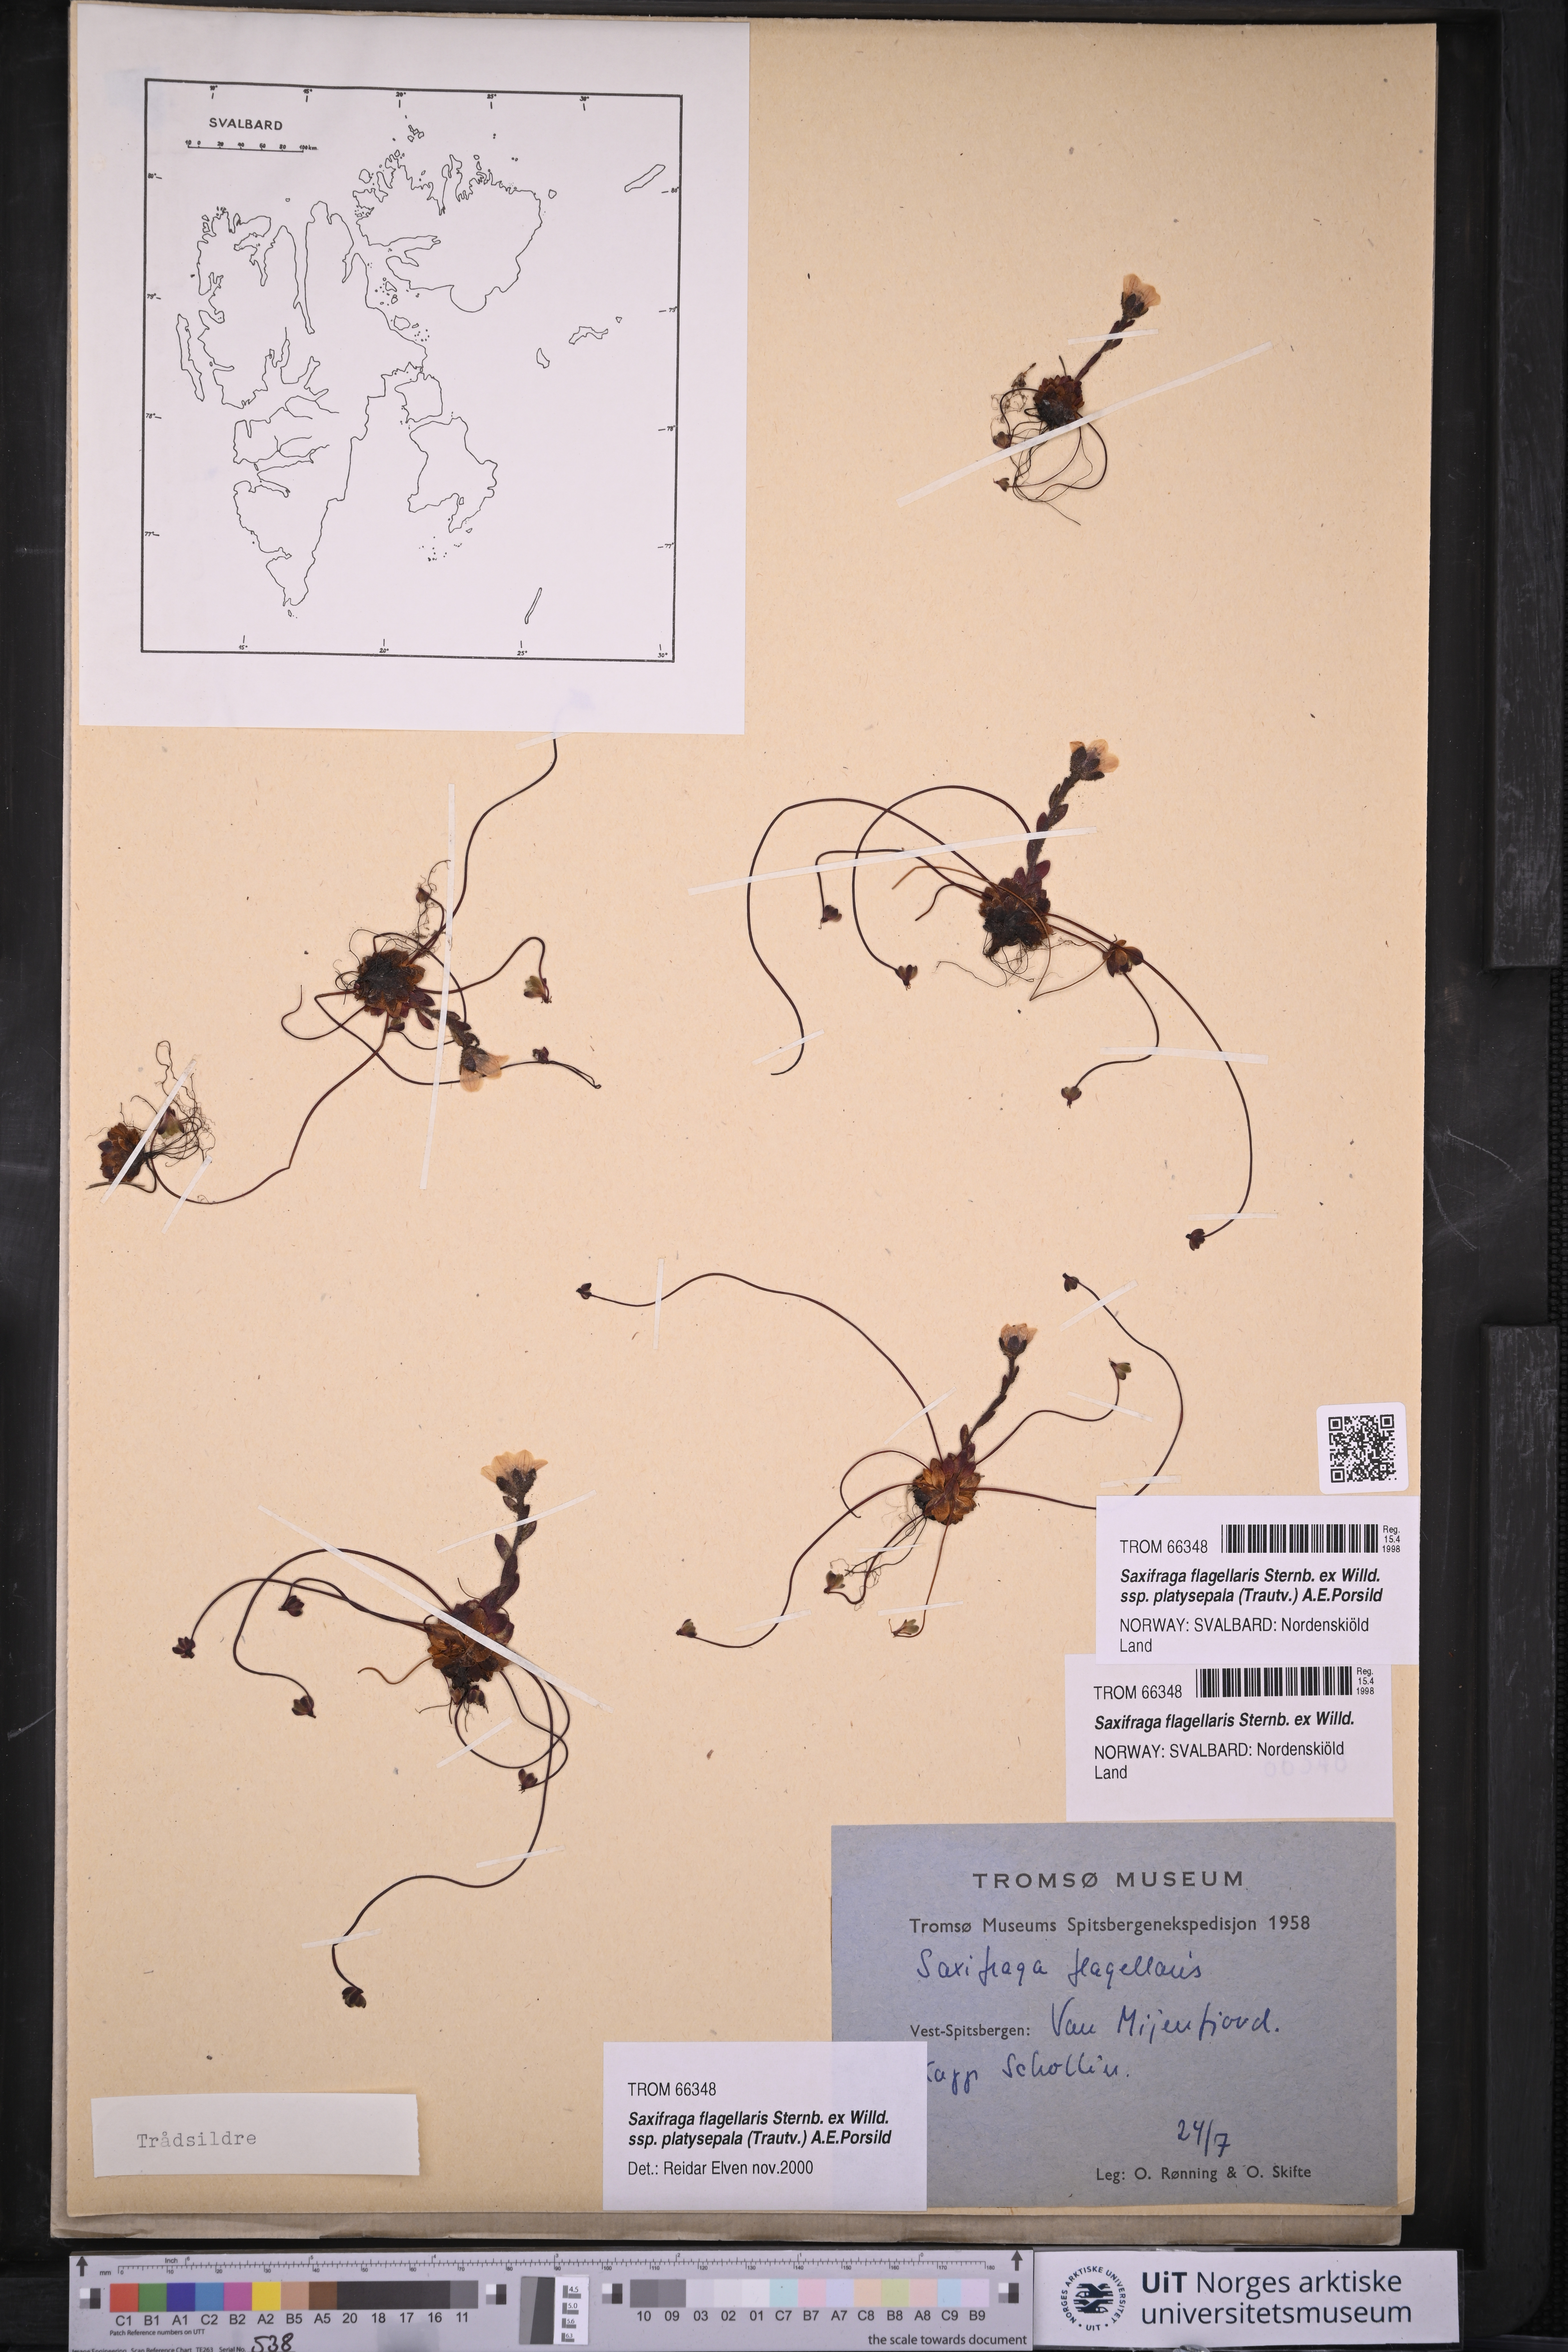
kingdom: Plantae
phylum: Tracheophyta
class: Magnoliopsida
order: Saxifragales
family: Saxifragaceae
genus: Saxifraga
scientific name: Saxifraga platysepala
